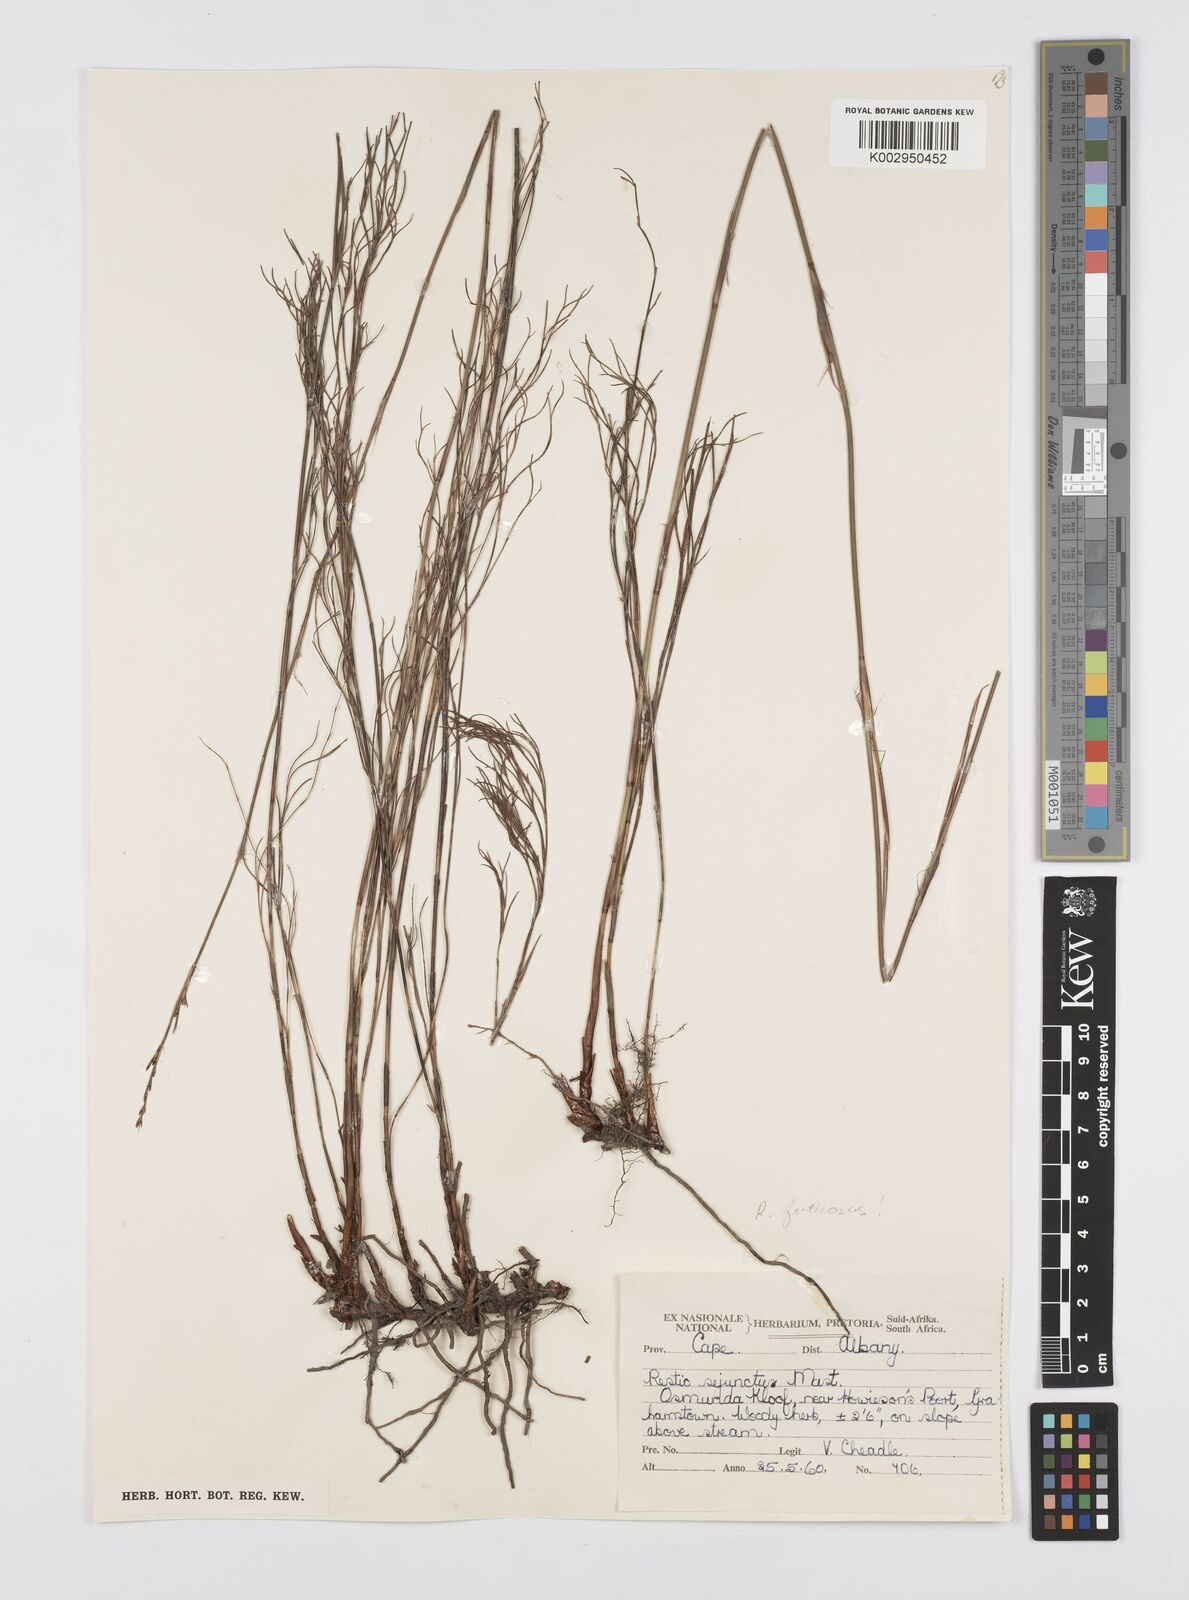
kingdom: Plantae
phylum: Tracheophyta
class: Liliopsida
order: Poales
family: Restionaceae
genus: Rhodocoma
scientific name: Rhodocoma fruticosa
